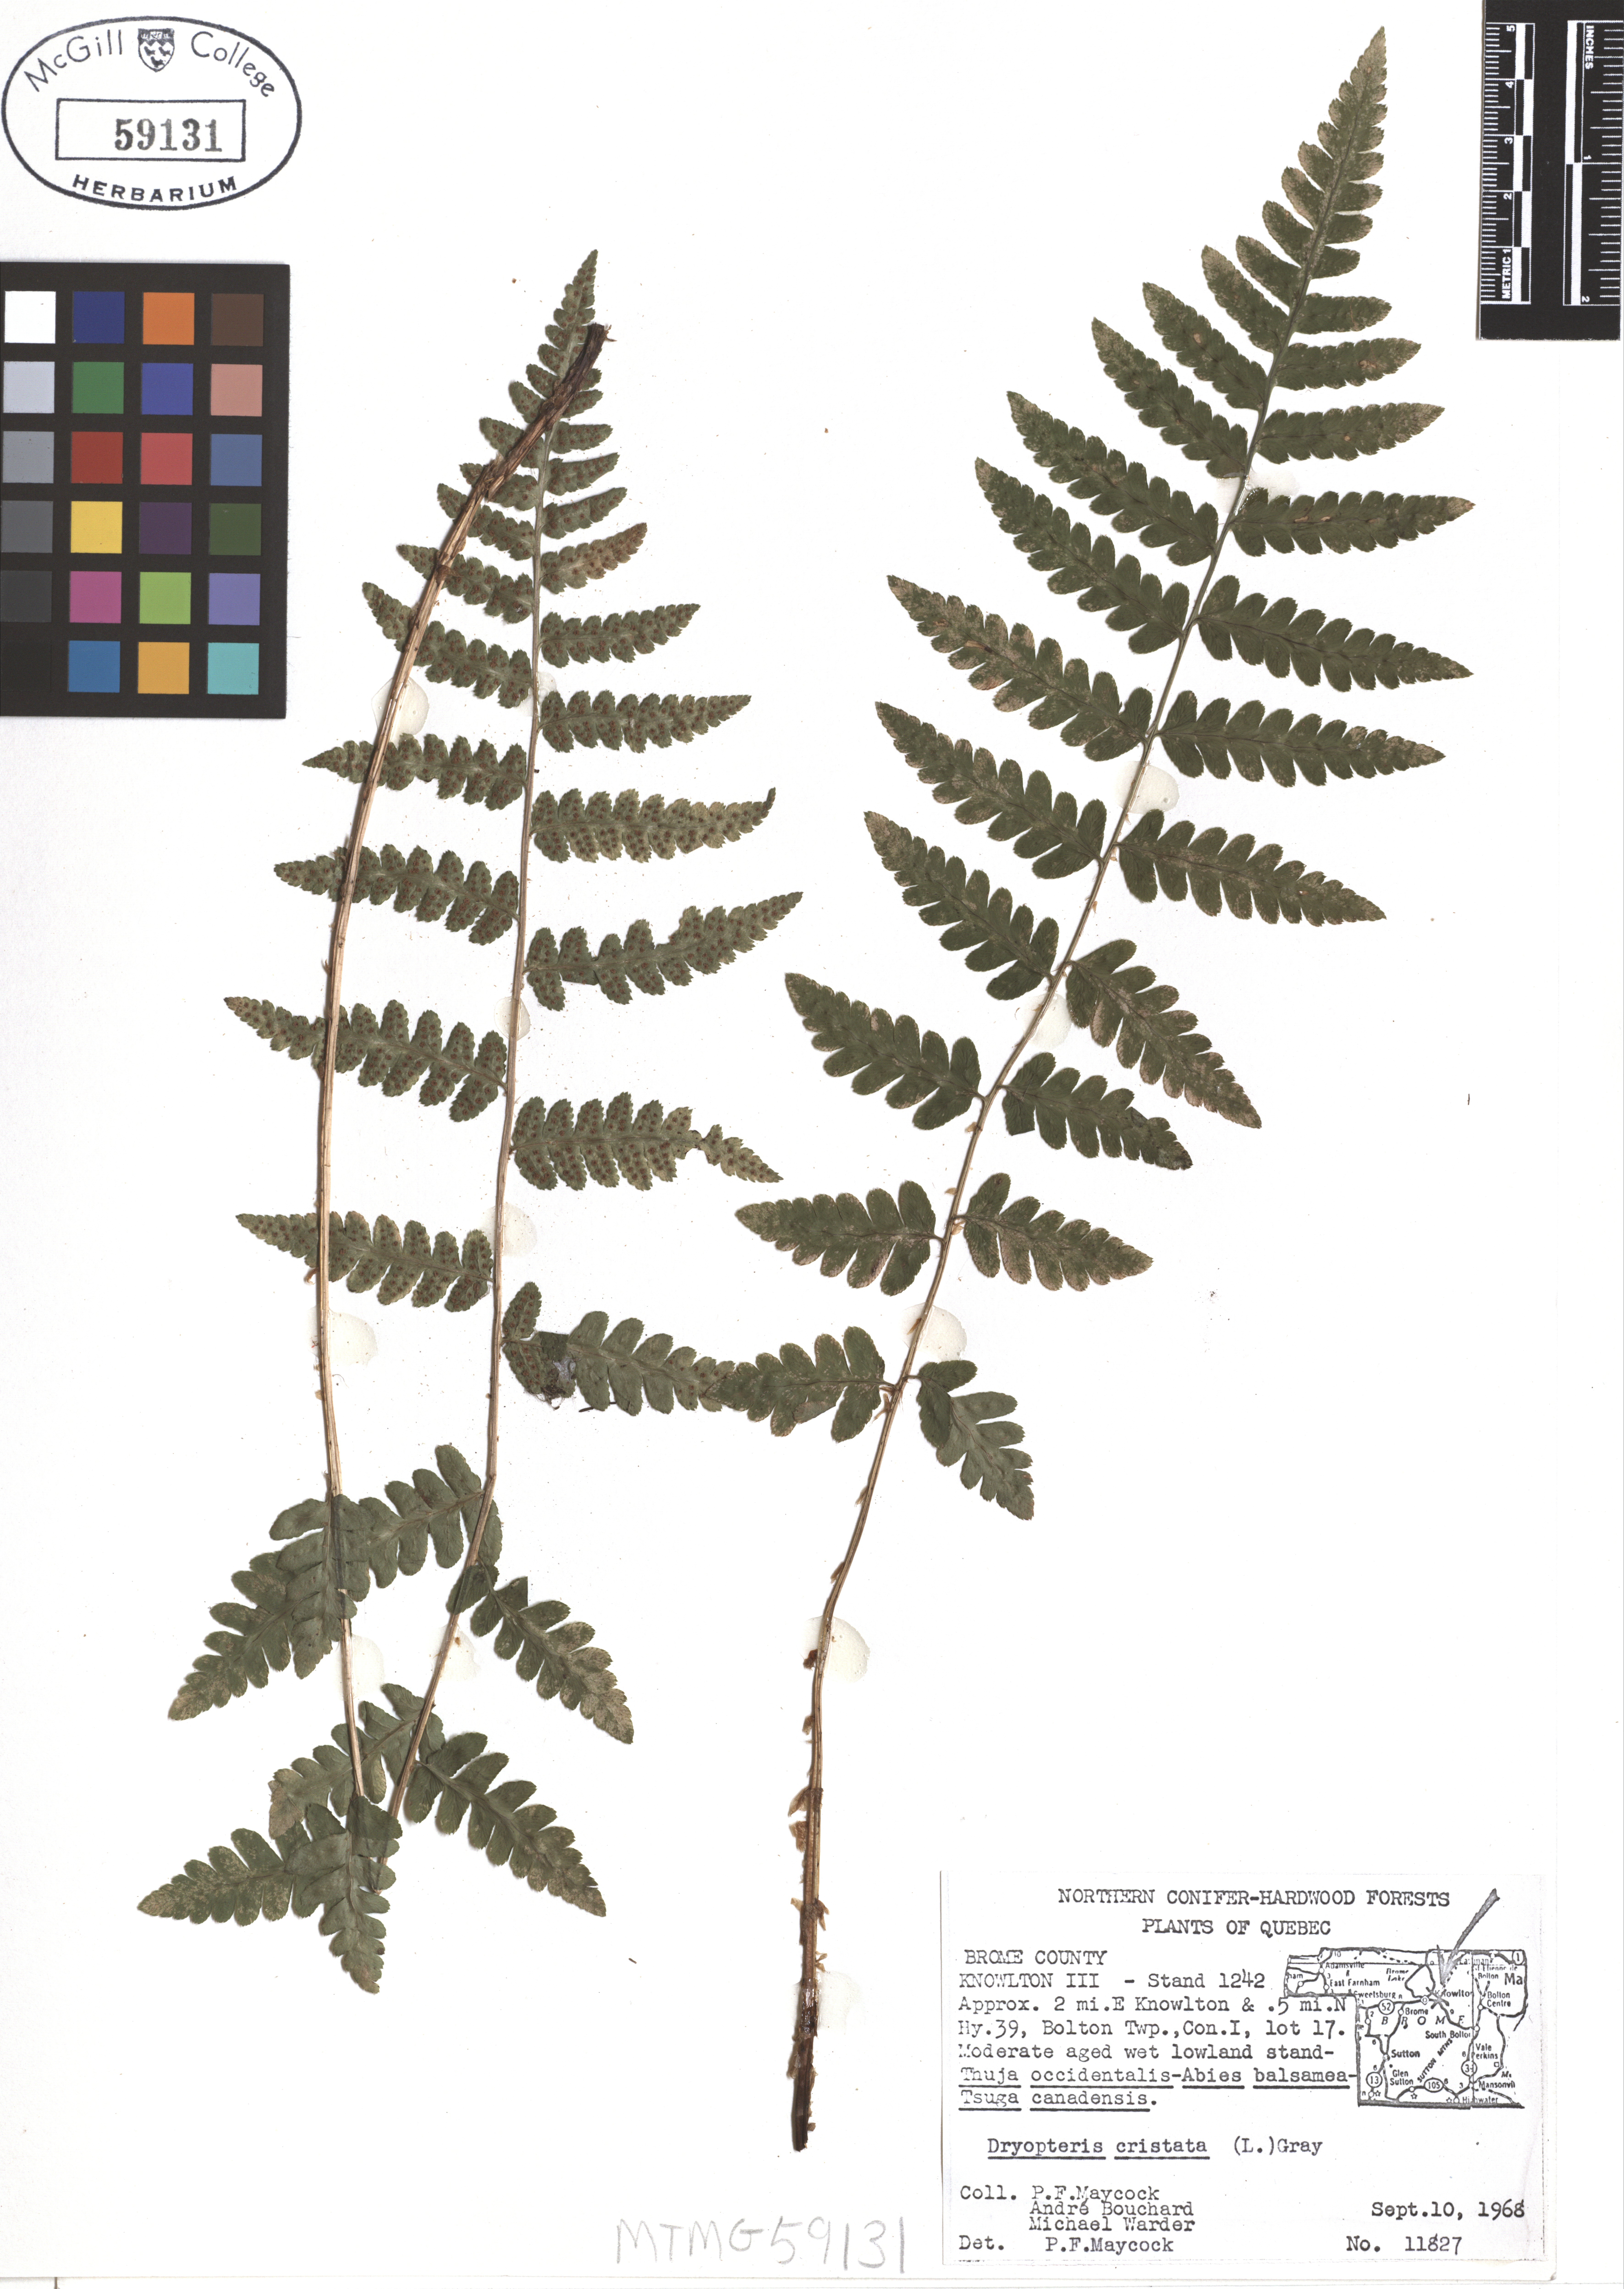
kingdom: Plantae
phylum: Tracheophyta
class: Polypodiopsida
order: Polypodiales
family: Dryopteridaceae
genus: Dryopteris
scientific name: Dryopteris cristata
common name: Crested wood fern
